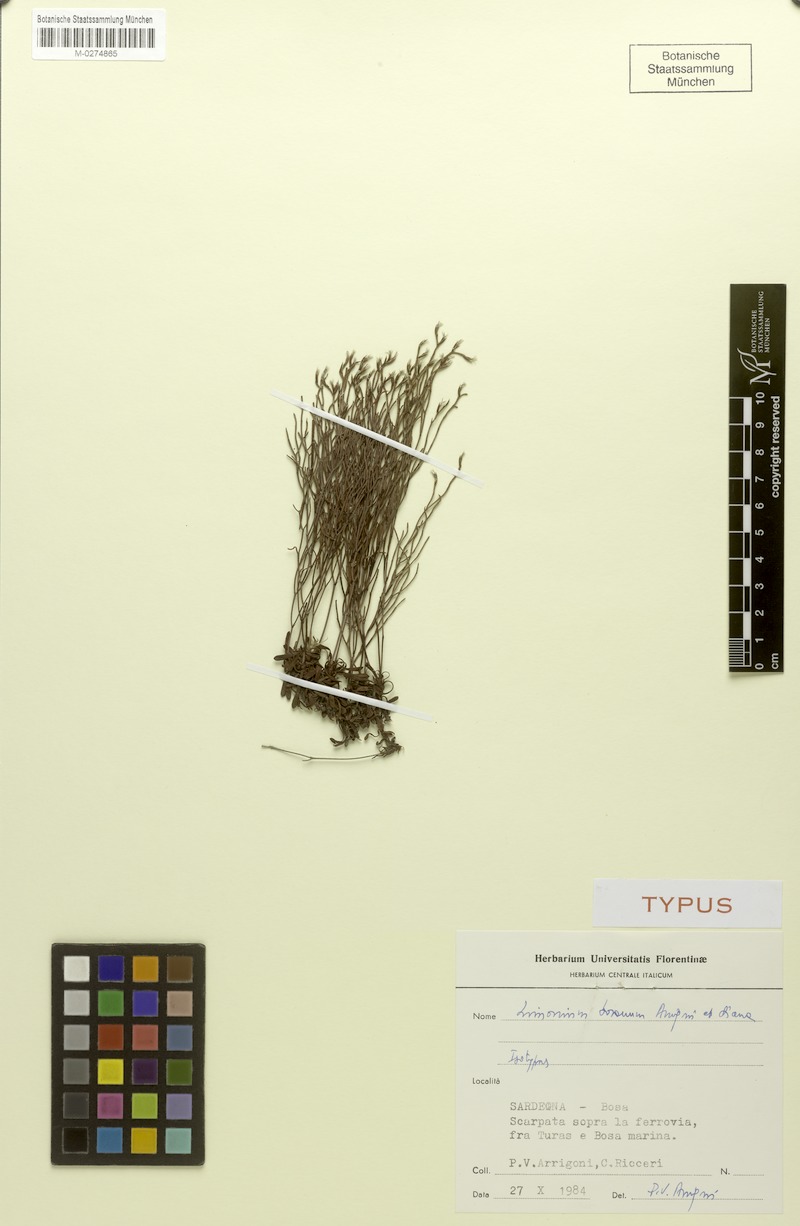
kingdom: Plantae
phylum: Tracheophyta
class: Magnoliopsida
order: Caryophyllales
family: Plumbaginaceae
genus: Limonium
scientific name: Limonium acutifolium
